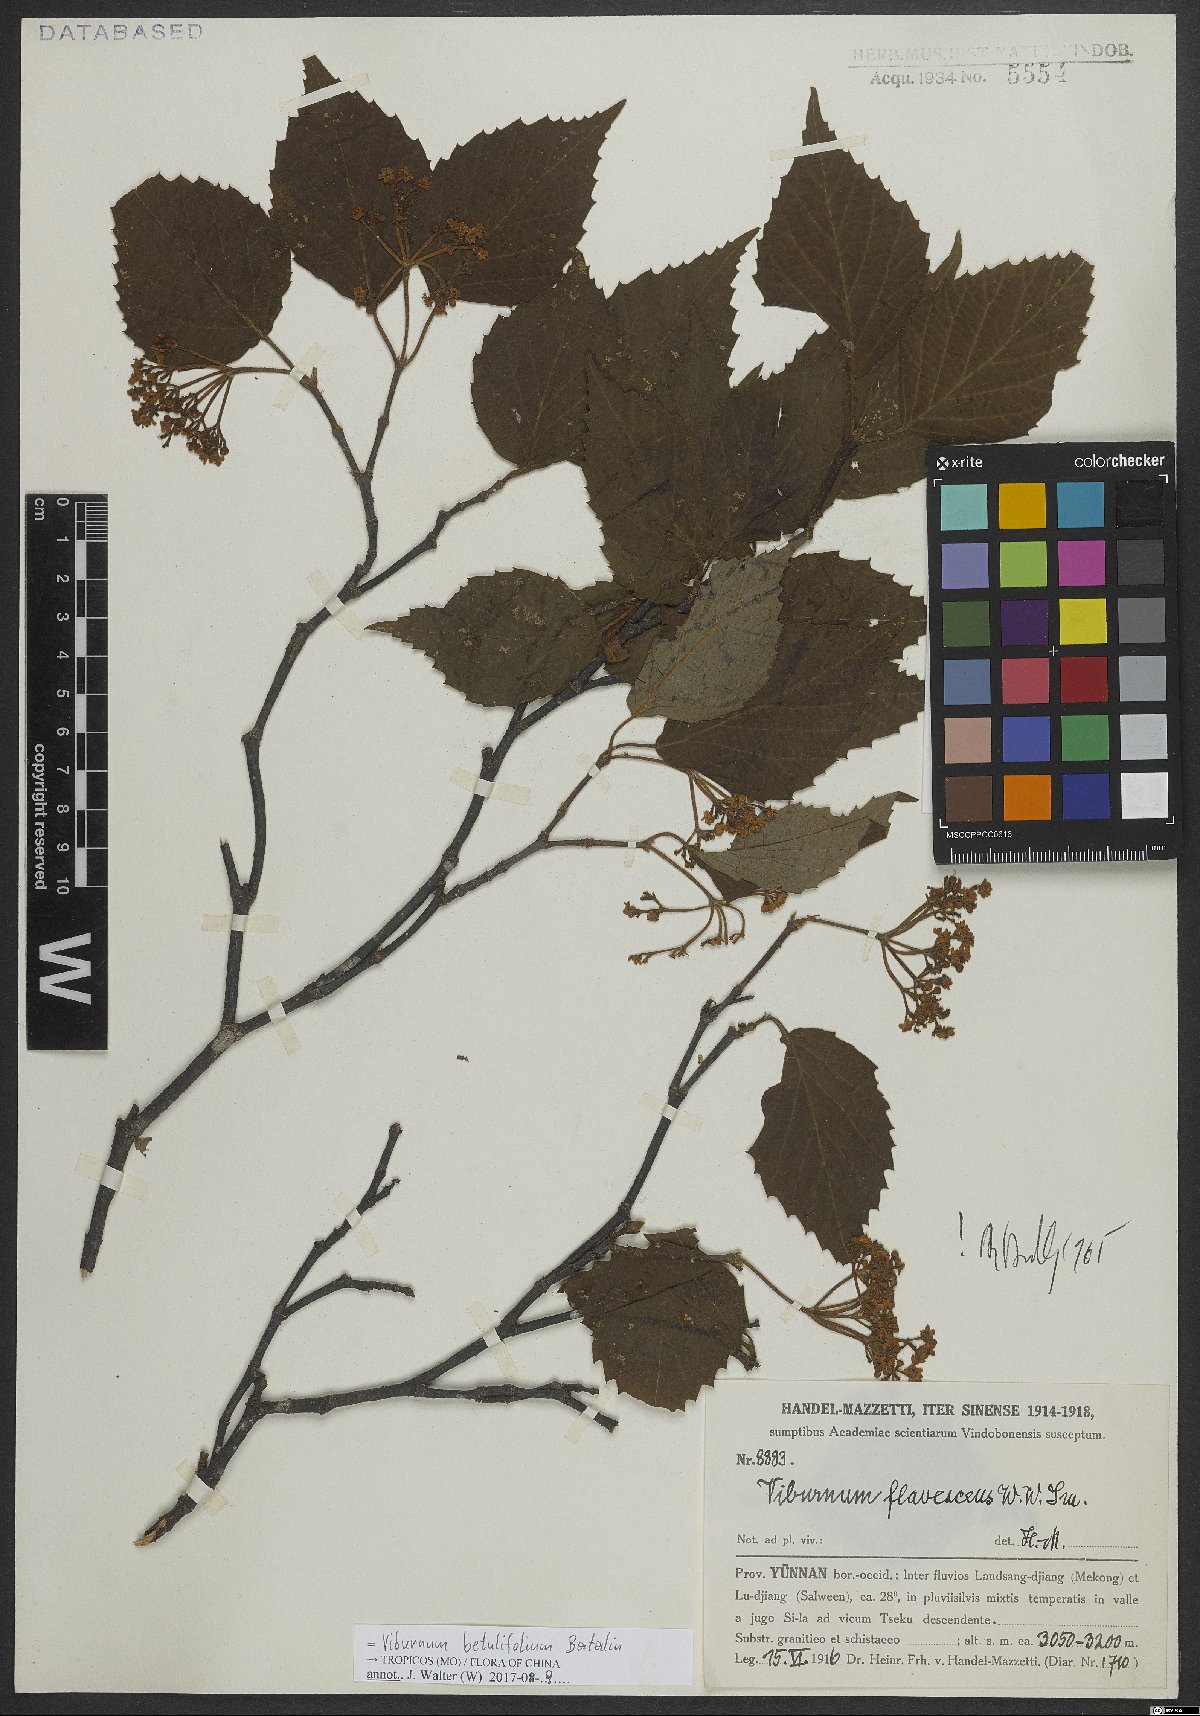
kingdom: Plantae
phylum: Tracheophyta
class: Magnoliopsida
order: Dipsacales
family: Viburnaceae
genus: Viburnum
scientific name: Viburnum betulifolium
